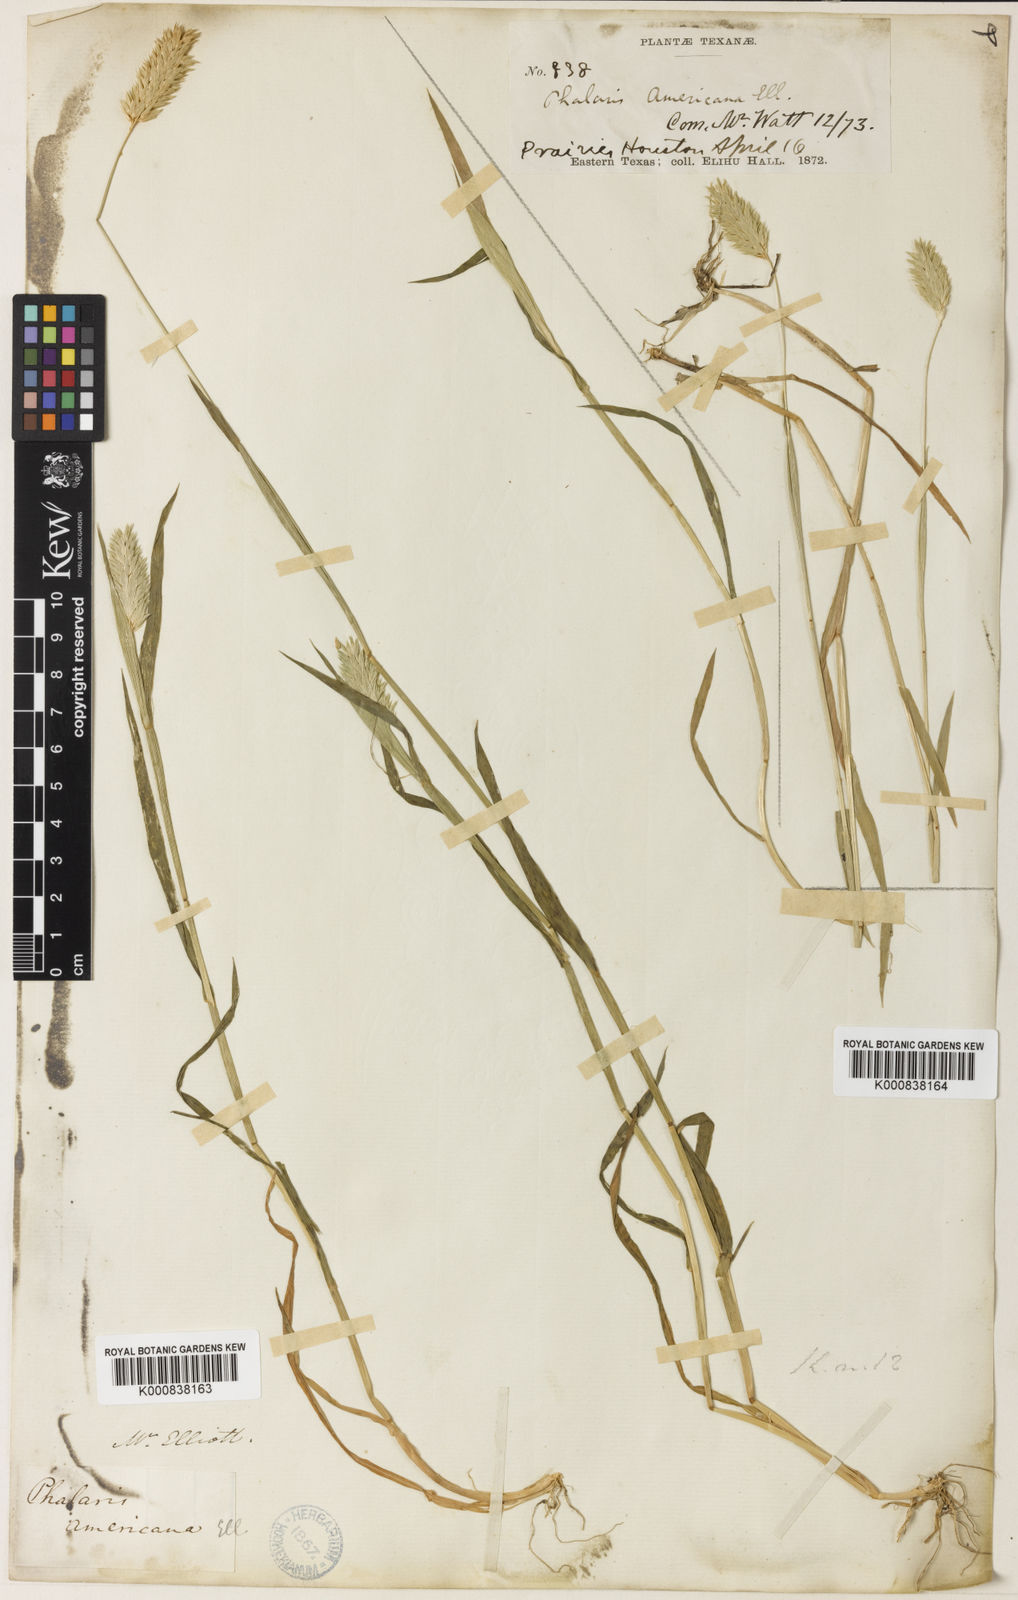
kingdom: Plantae
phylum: Tracheophyta
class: Liliopsida
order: Poales
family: Poaceae
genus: Phalaris
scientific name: Phalaris caroliniana
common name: May grass
